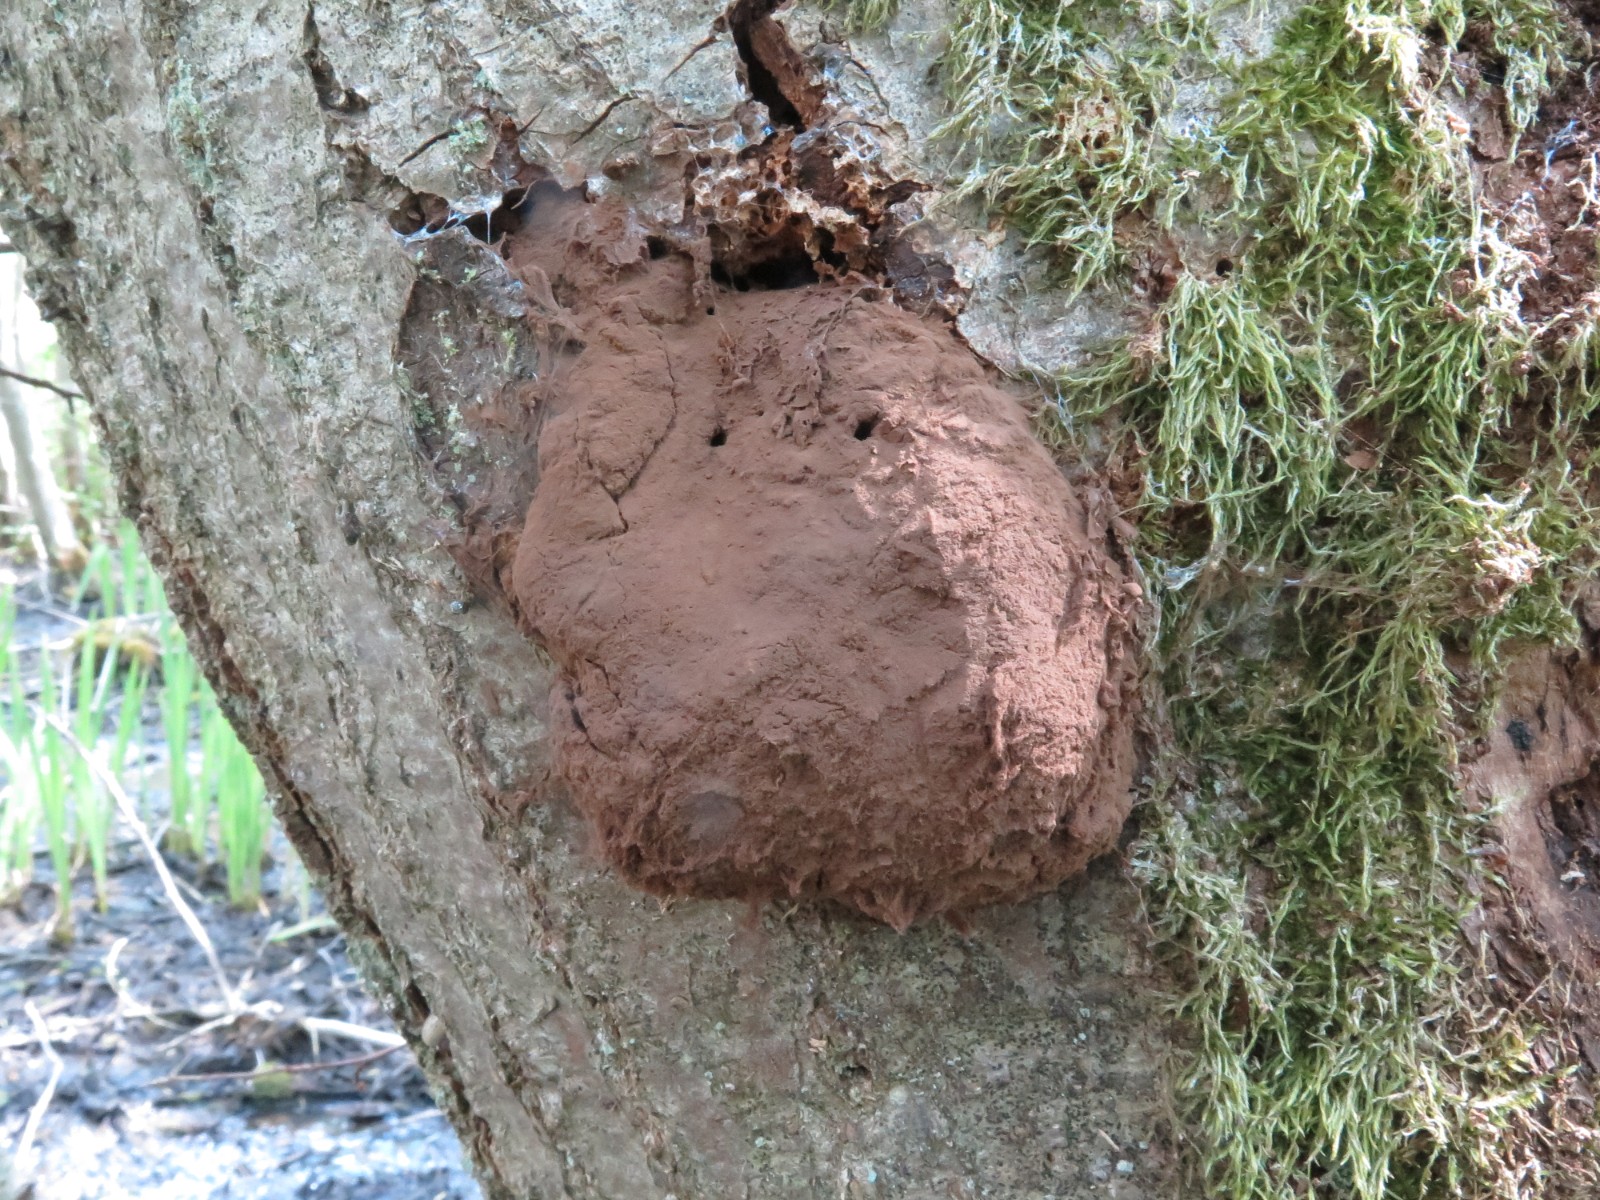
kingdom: Protozoa
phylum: Mycetozoa
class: Myxomycetes
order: Cribrariales
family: Tubiferaceae
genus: Reticularia
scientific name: Reticularia lycoperdon
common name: skinnende støvpude
